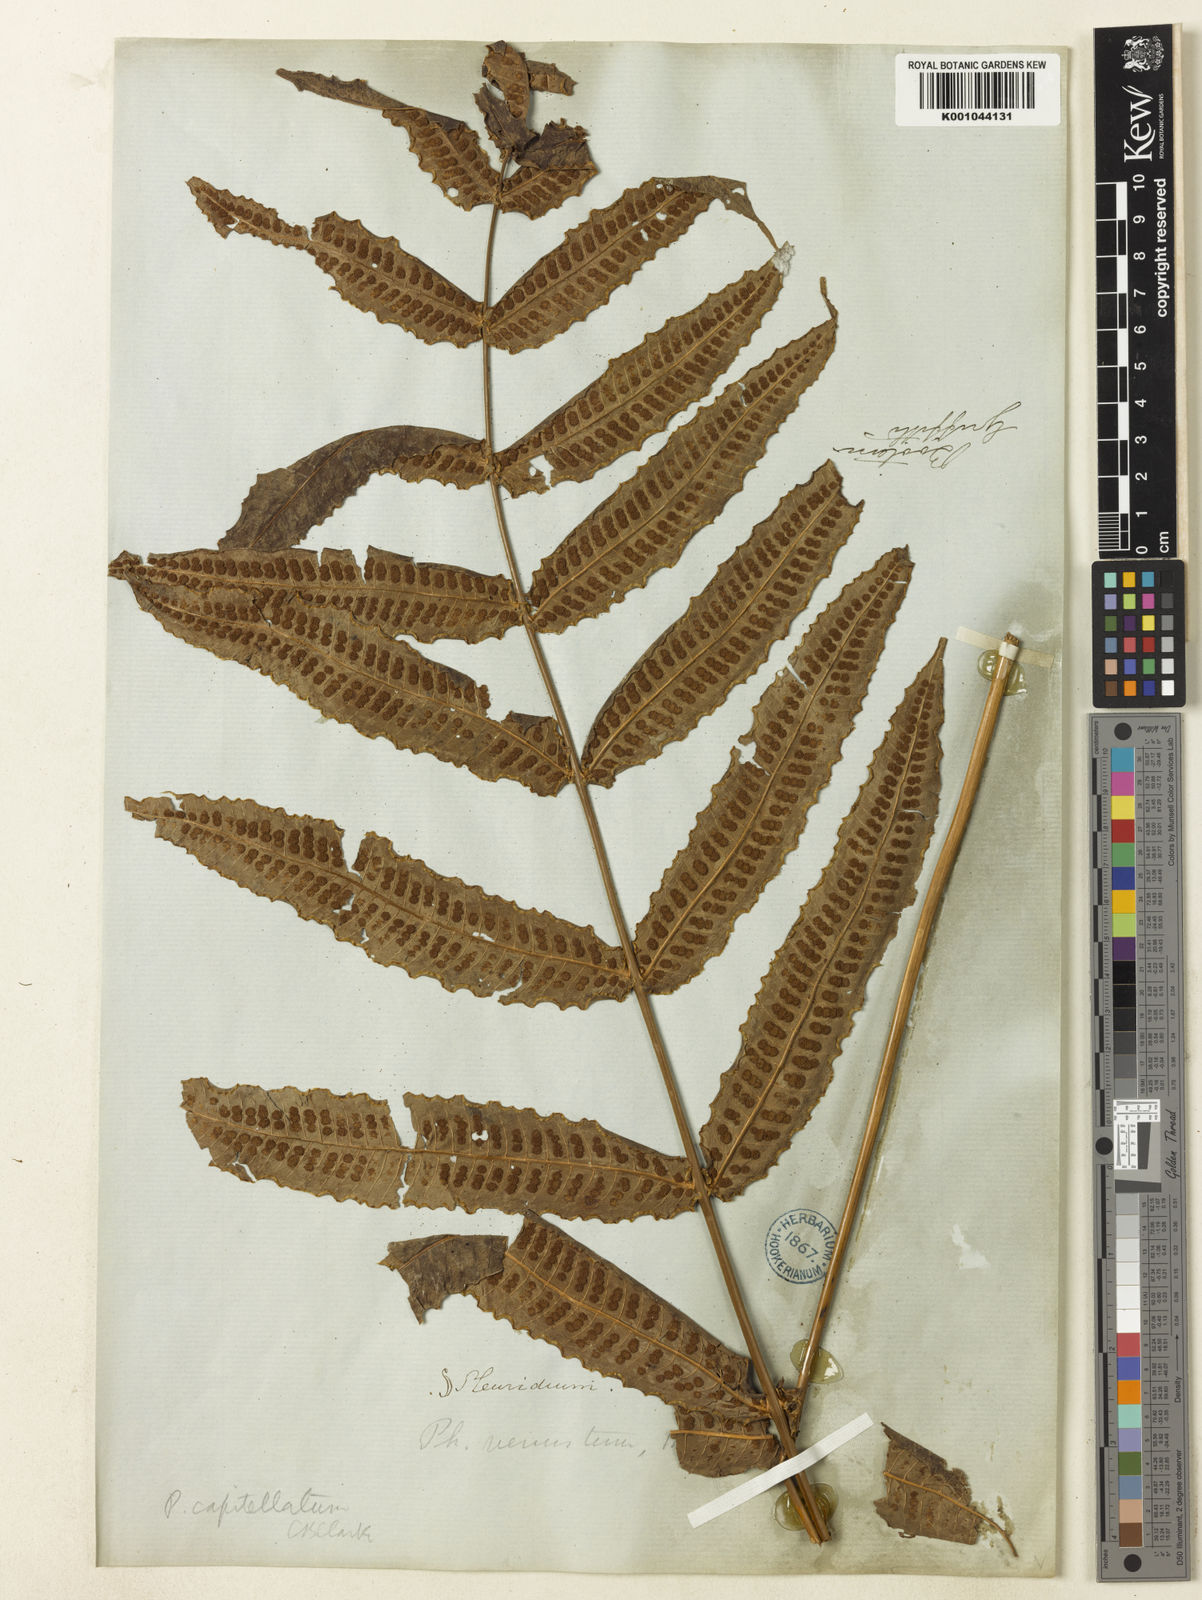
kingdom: Plantae
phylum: Tracheophyta
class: Polypodiopsida
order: Polypodiales
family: Polypodiaceae
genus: Selliguea
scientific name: Selliguea wardii
